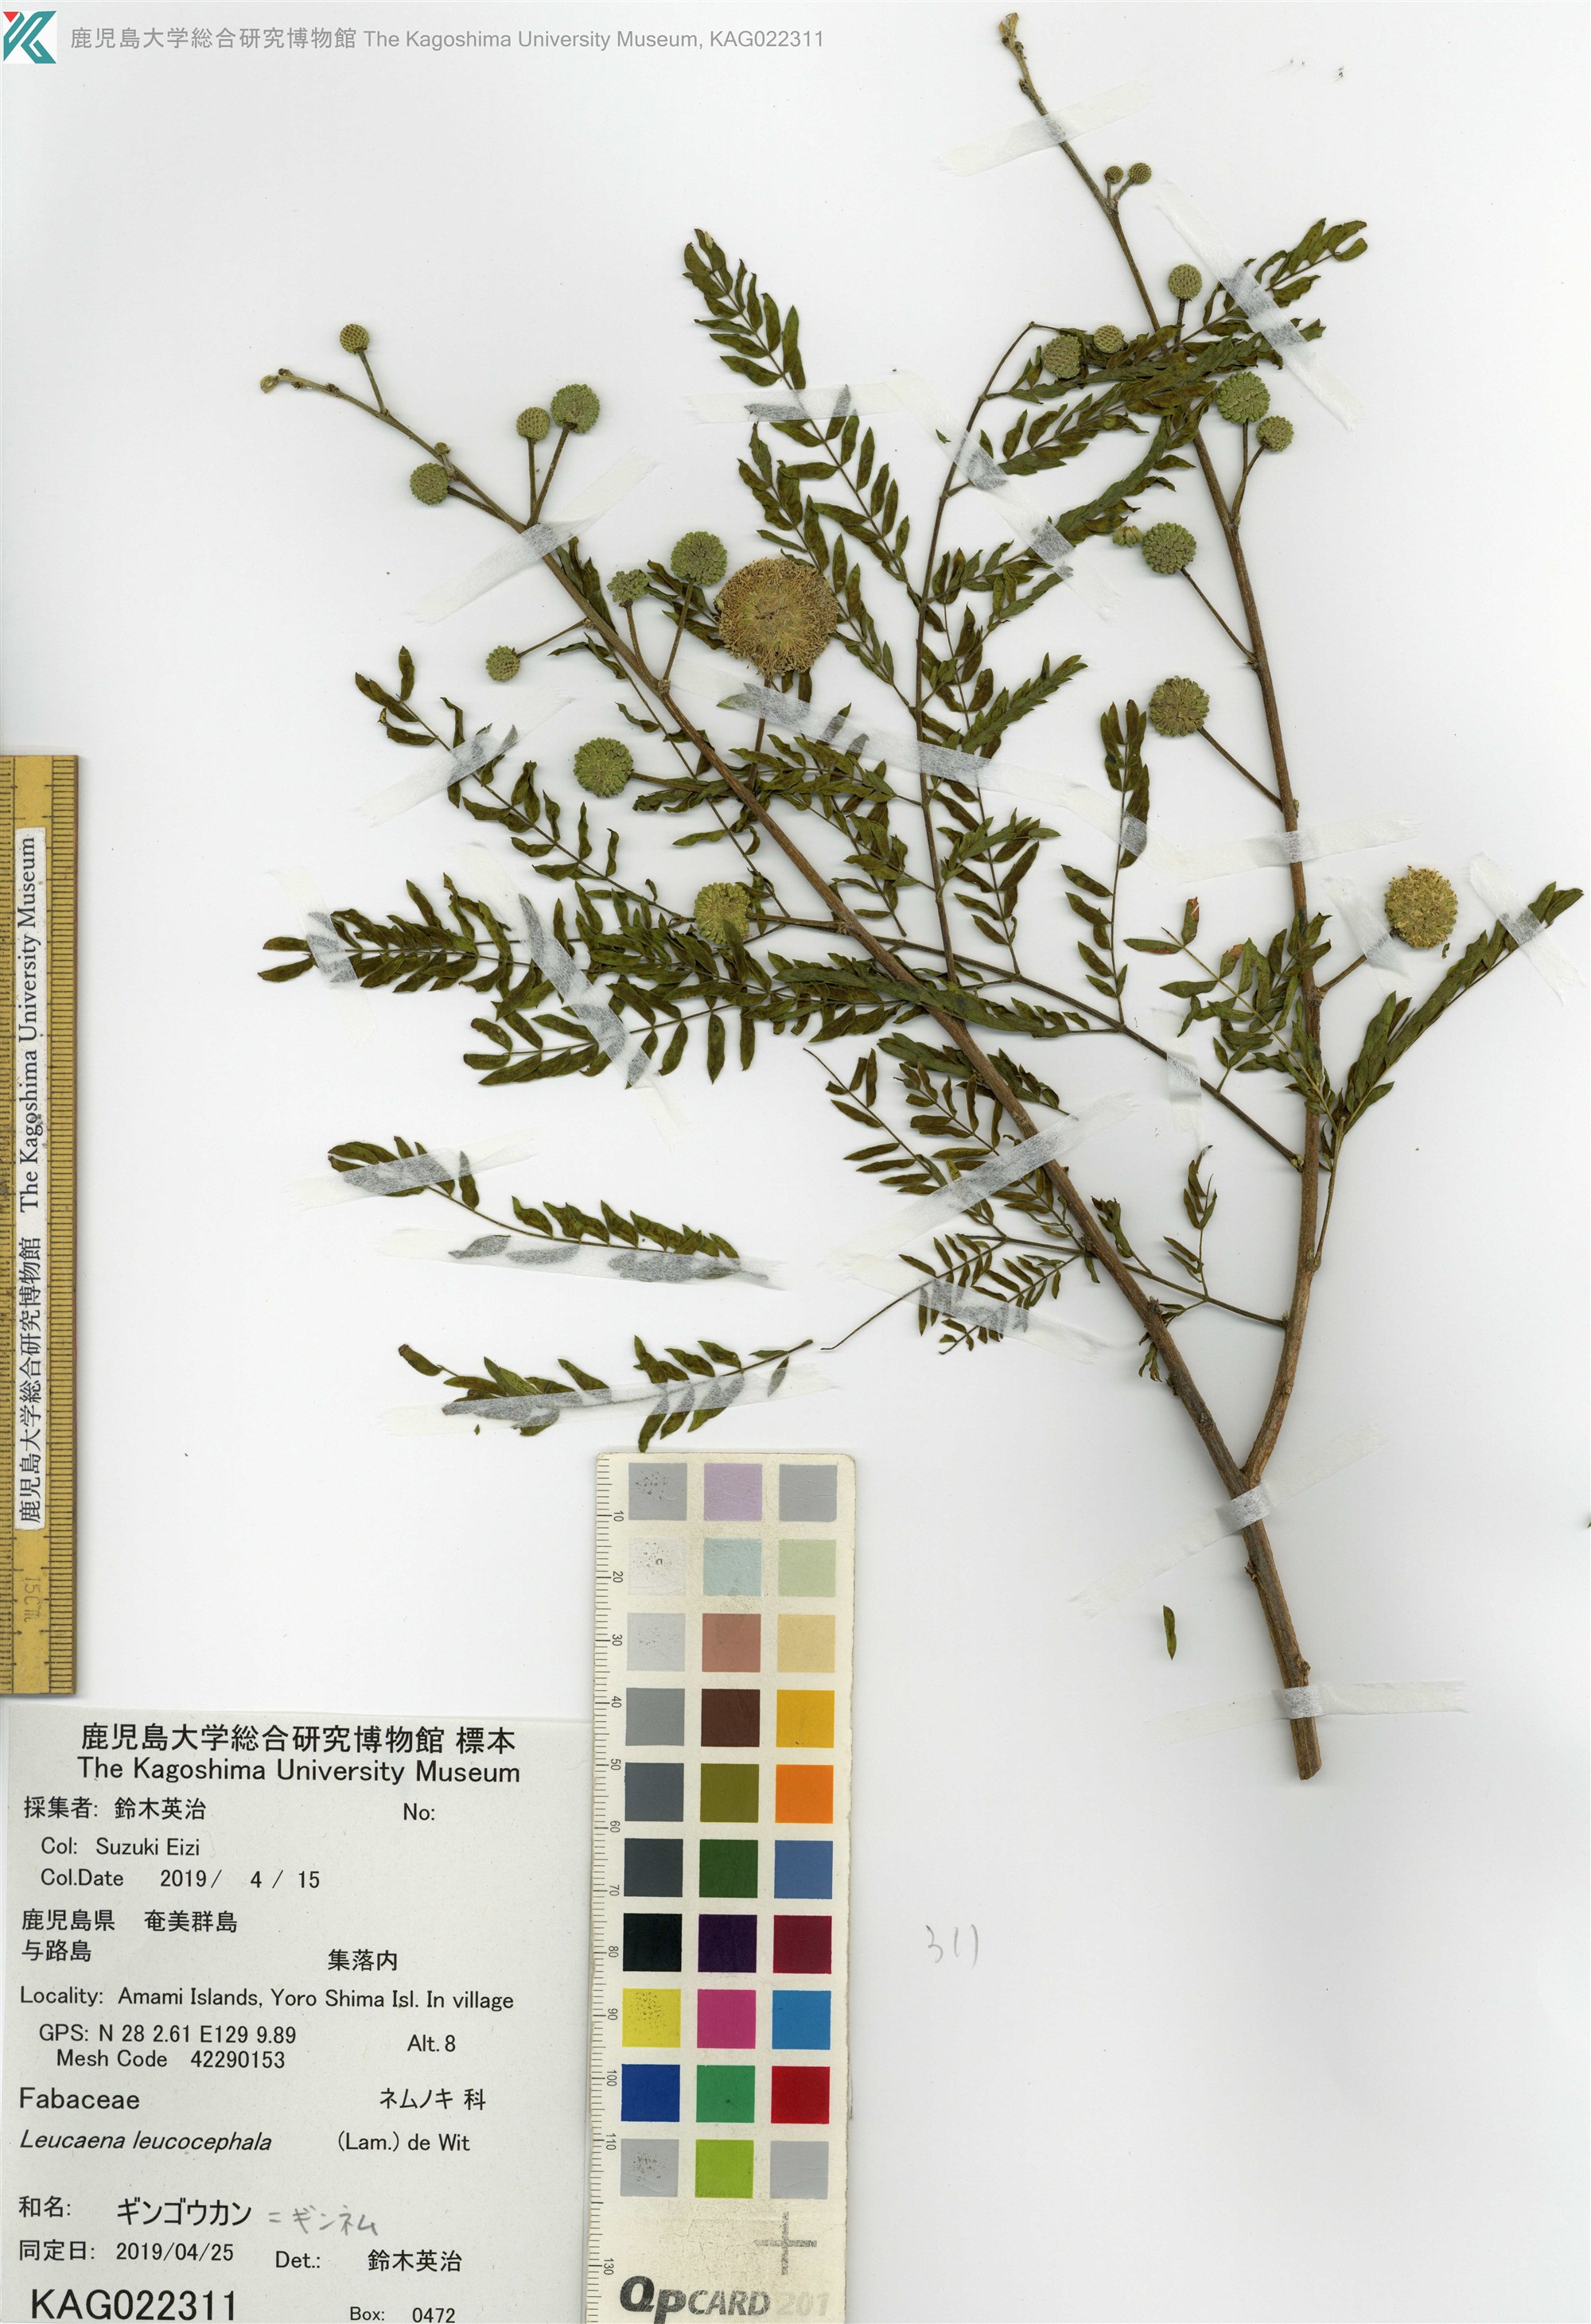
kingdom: Plantae
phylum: Tracheophyta
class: Magnoliopsida
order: Fabales
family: Fabaceae
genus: Leucaena
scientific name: Leucaena leucocephala
